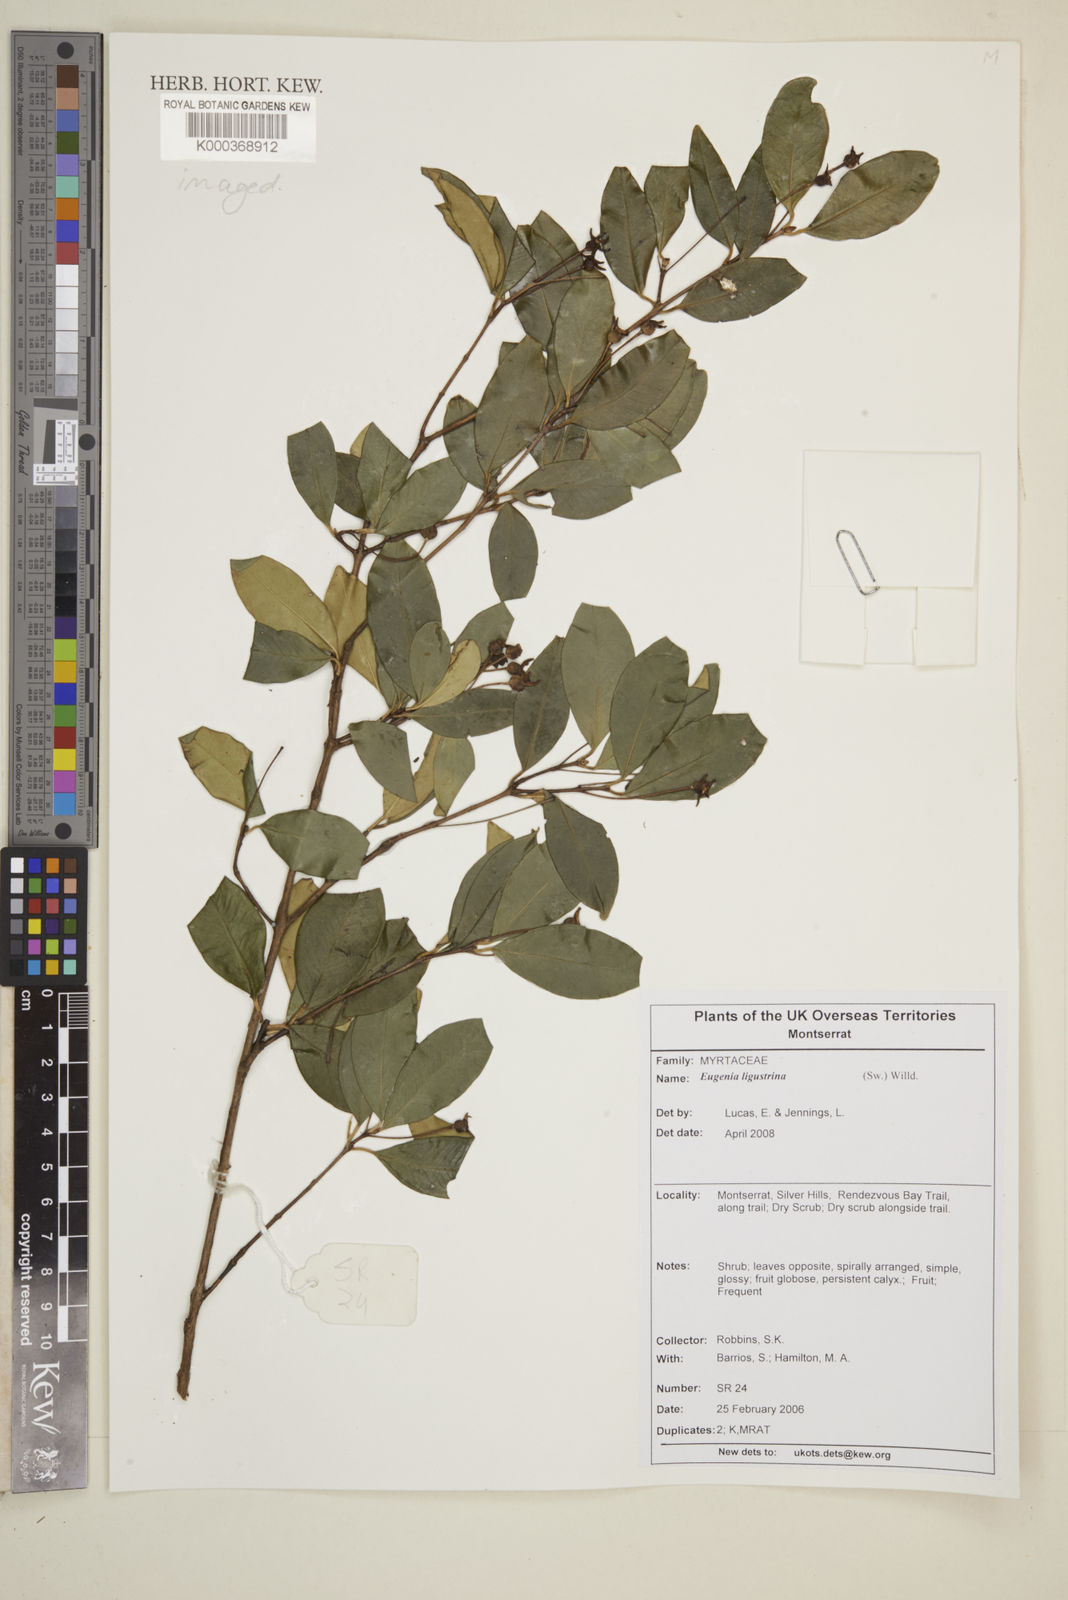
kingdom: Plantae
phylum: Tracheophyta
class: Magnoliopsida
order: Myrtales
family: Myrtaceae
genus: Eugenia
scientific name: Eugenia ligustrina
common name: Privet stopper
